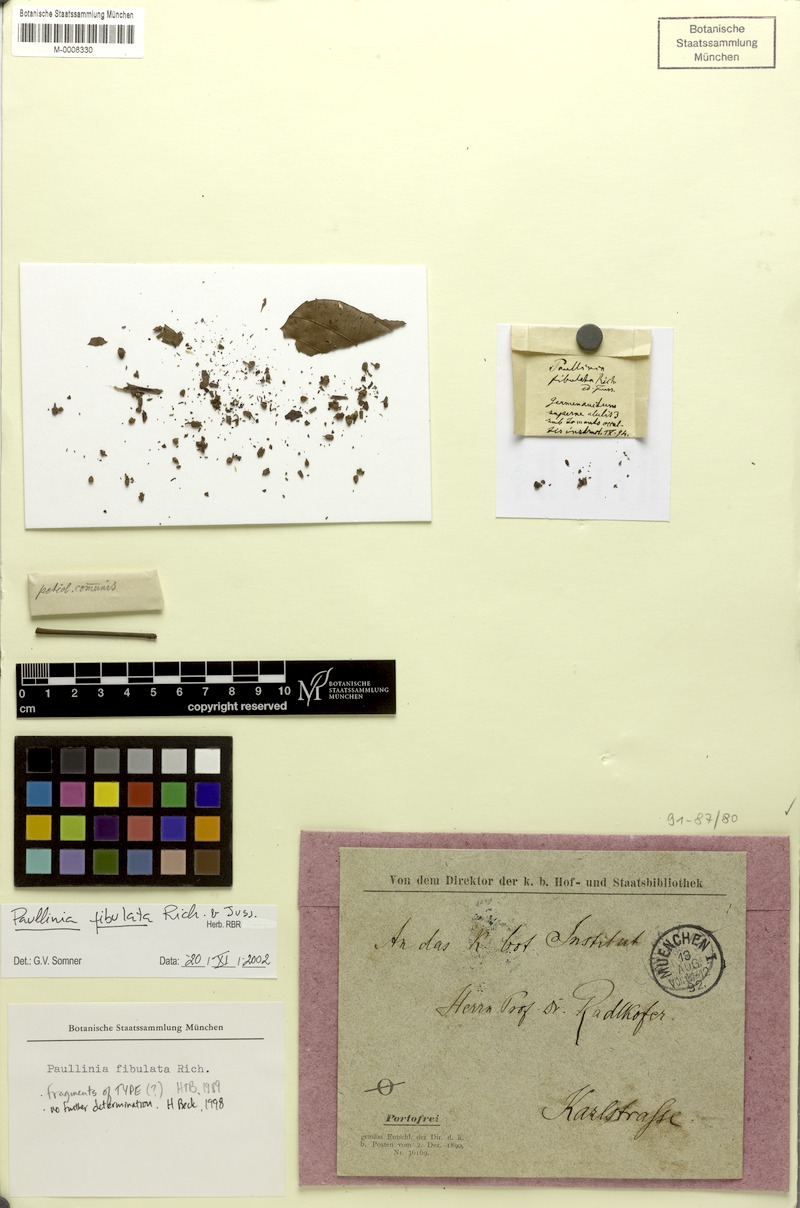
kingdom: Plantae
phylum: Tracheophyta
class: Magnoliopsida
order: Sapindales
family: Sapindaceae
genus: Paullinia
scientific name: Paullinia fibulata
